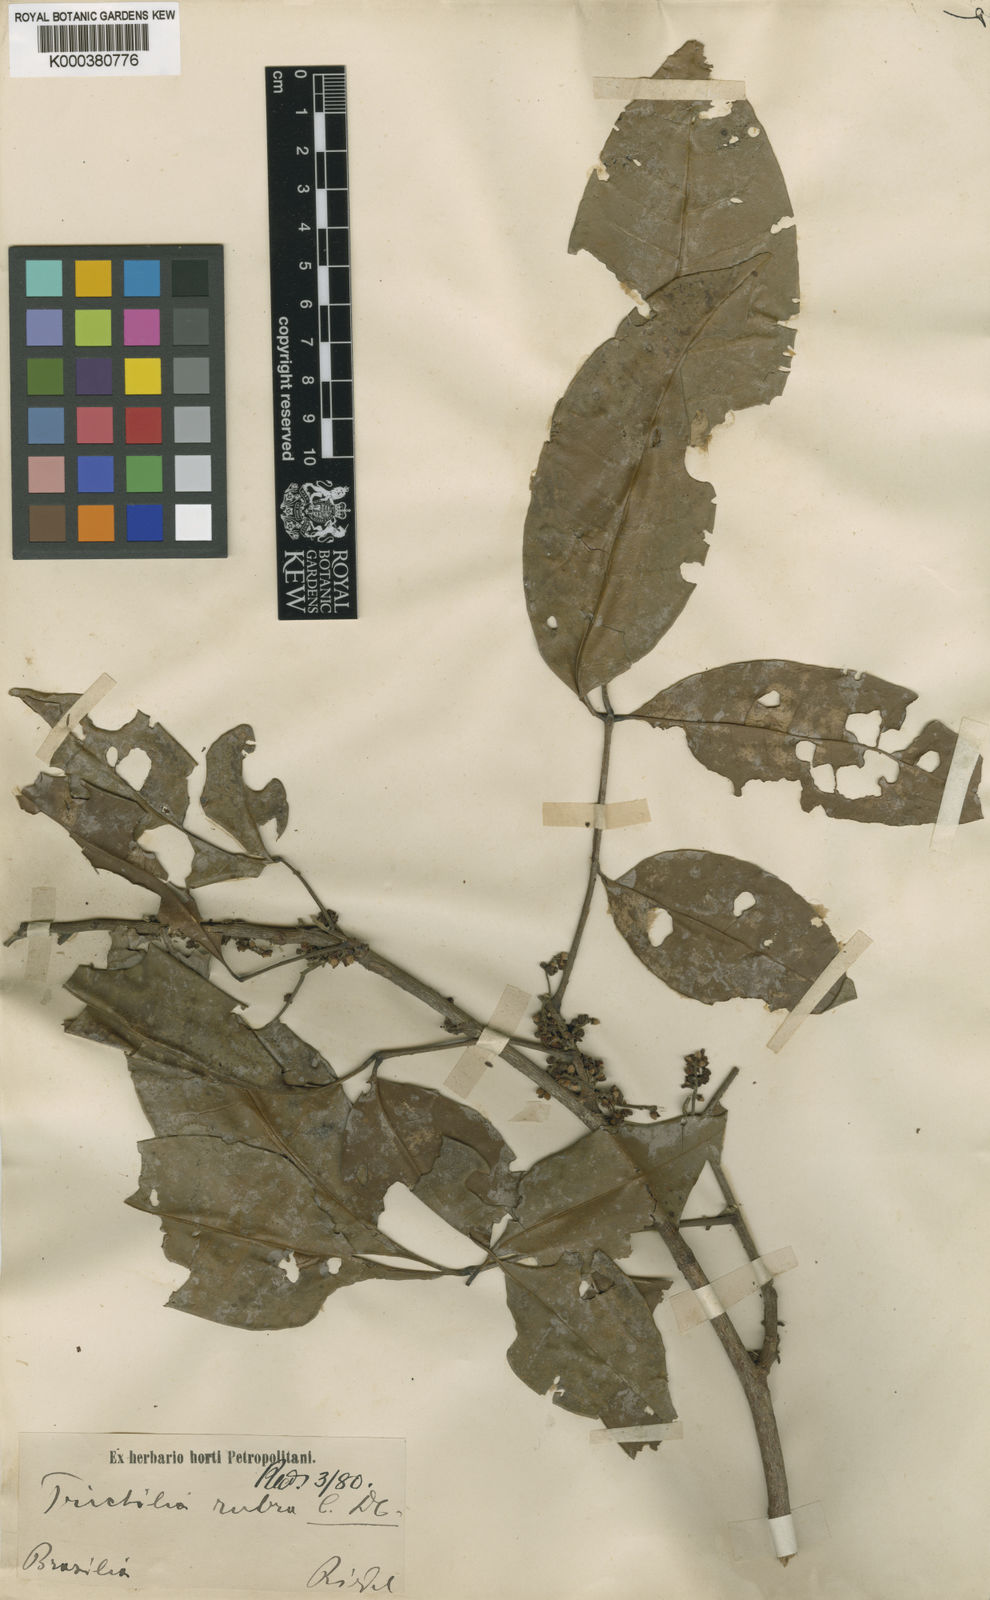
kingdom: Plantae
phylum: Tracheophyta
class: Magnoliopsida
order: Sapindales
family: Meliaceae
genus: Trichilia
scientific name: Trichilia rubra
